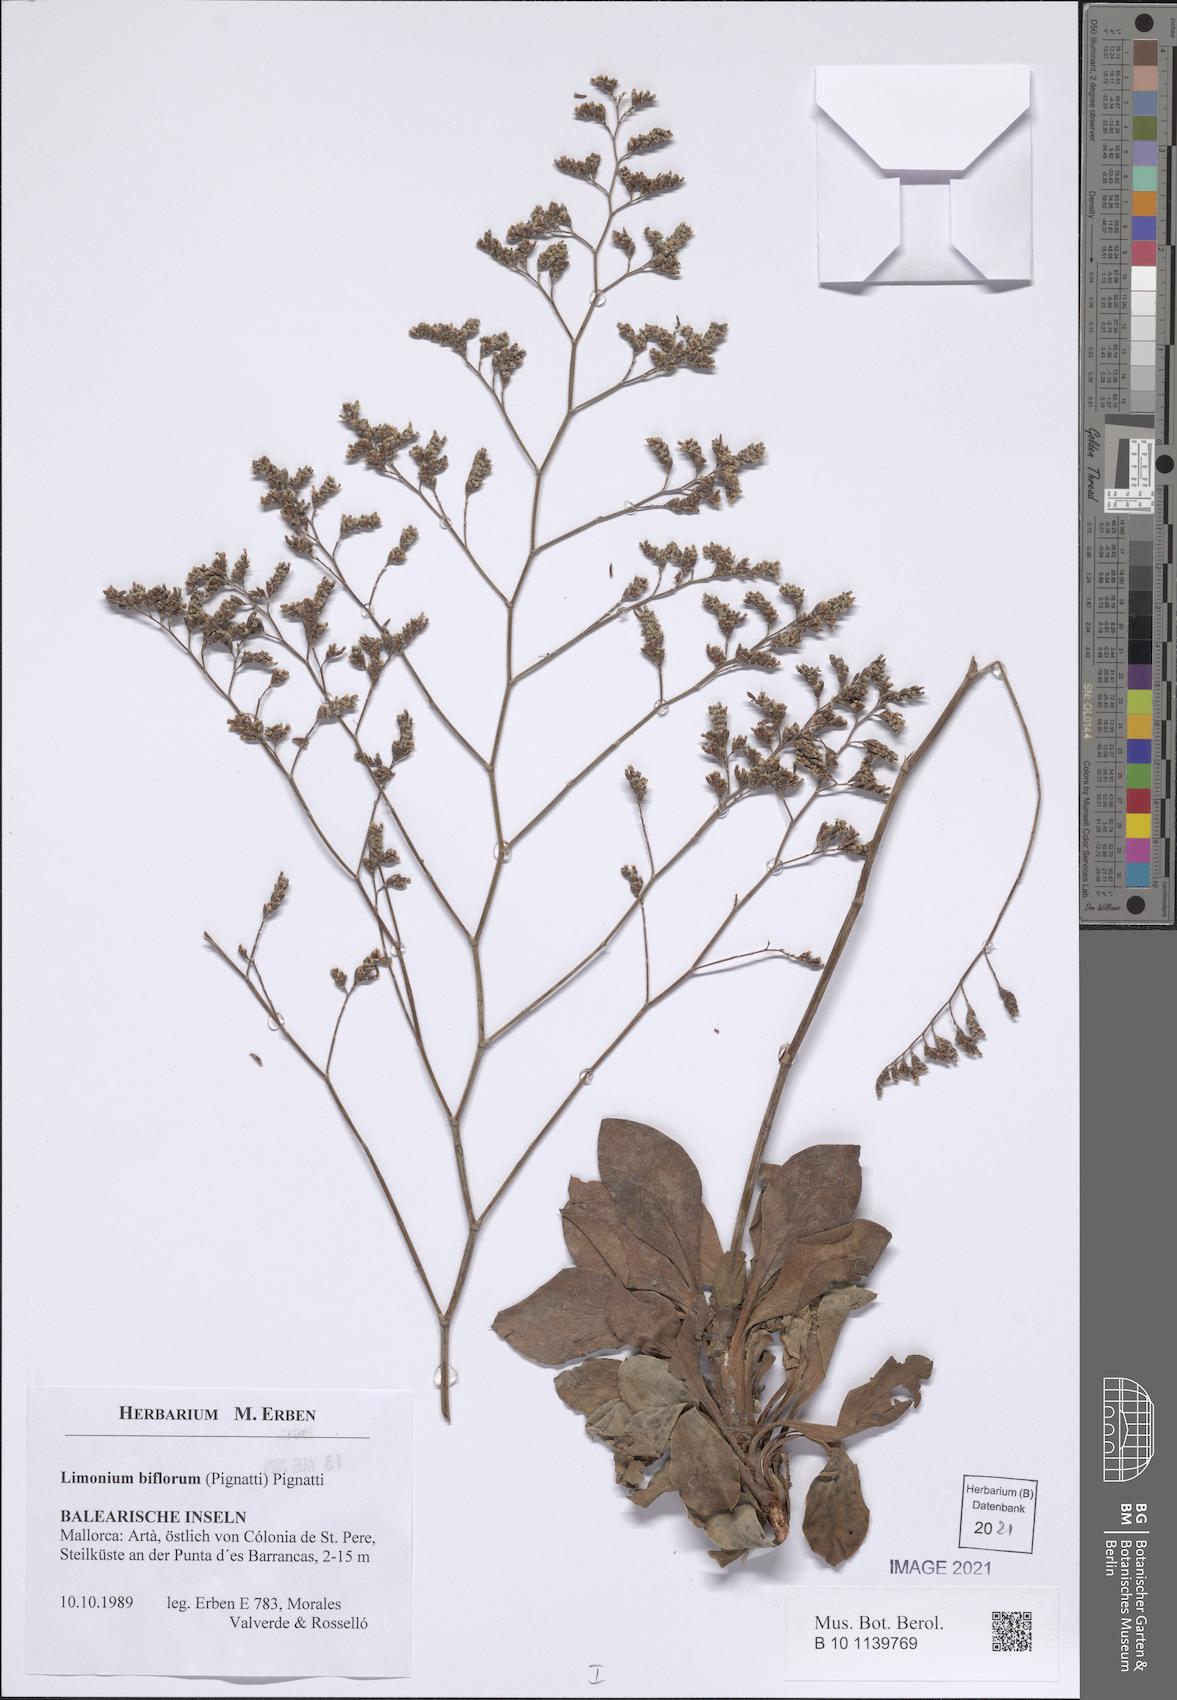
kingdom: Plantae
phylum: Tracheophyta
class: Magnoliopsida
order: Caryophyllales
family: Plumbaginaceae
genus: Limonium
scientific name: Limonium biflorum
